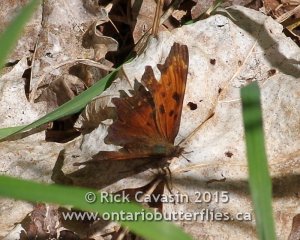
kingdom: Animalia
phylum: Arthropoda
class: Insecta
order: Lepidoptera
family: Nymphalidae
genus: Polygonia
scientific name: Polygonia progne
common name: Gray Comma
